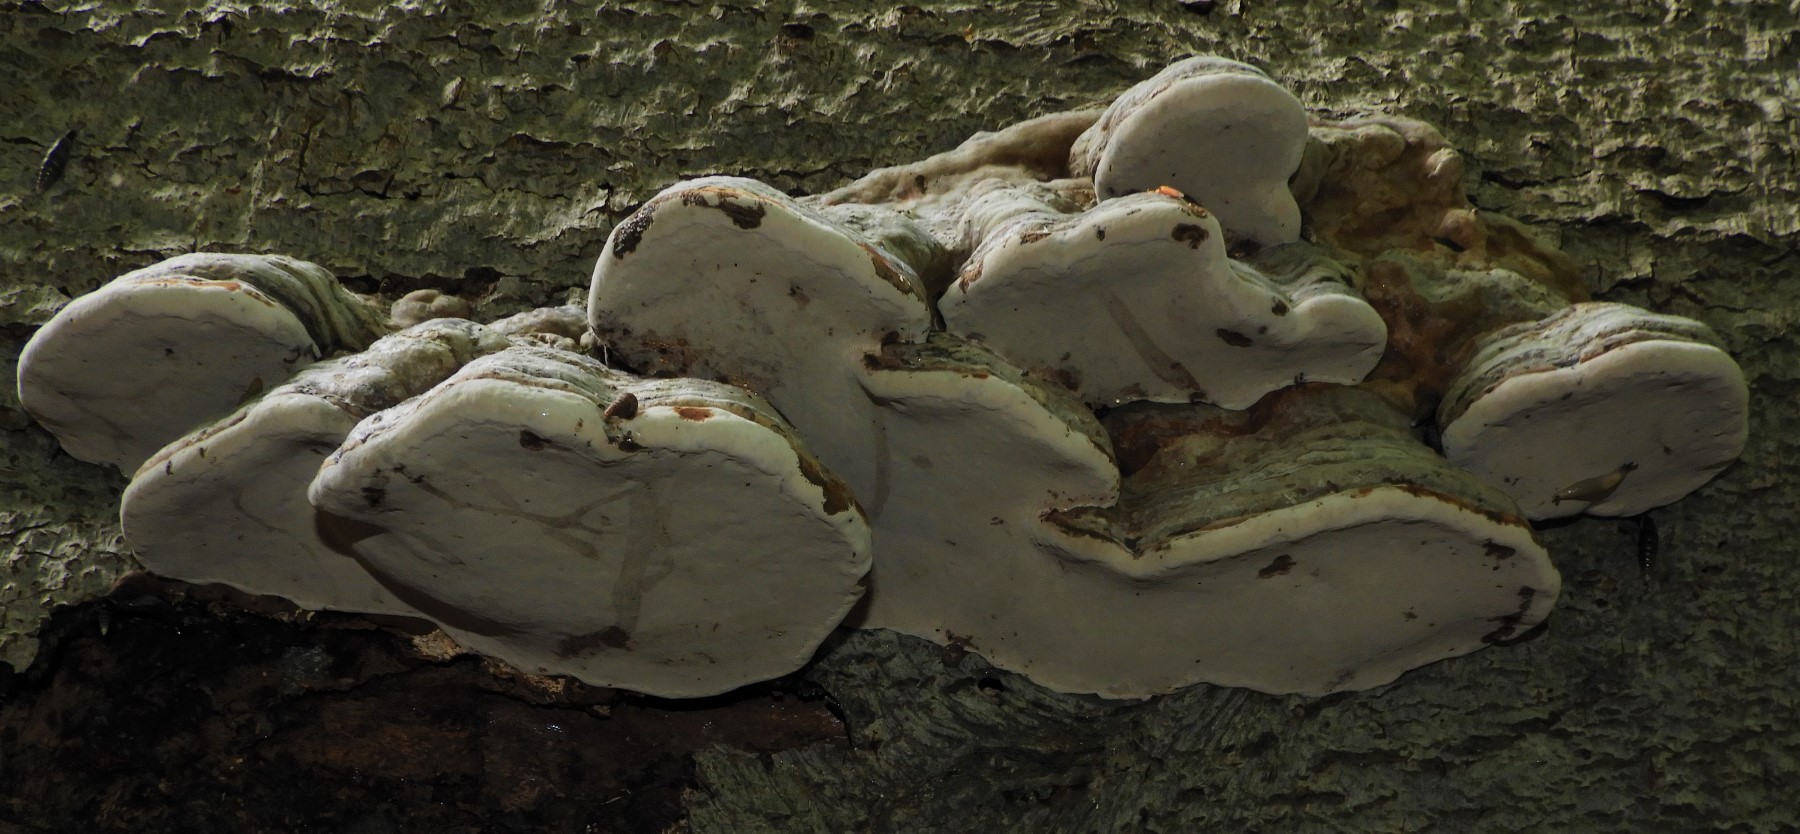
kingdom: Fungi
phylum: Basidiomycota
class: Agaricomycetes
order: Polyporales
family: Polyporaceae
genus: Fomes
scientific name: Fomes fomentarius
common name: tøndersvamp
